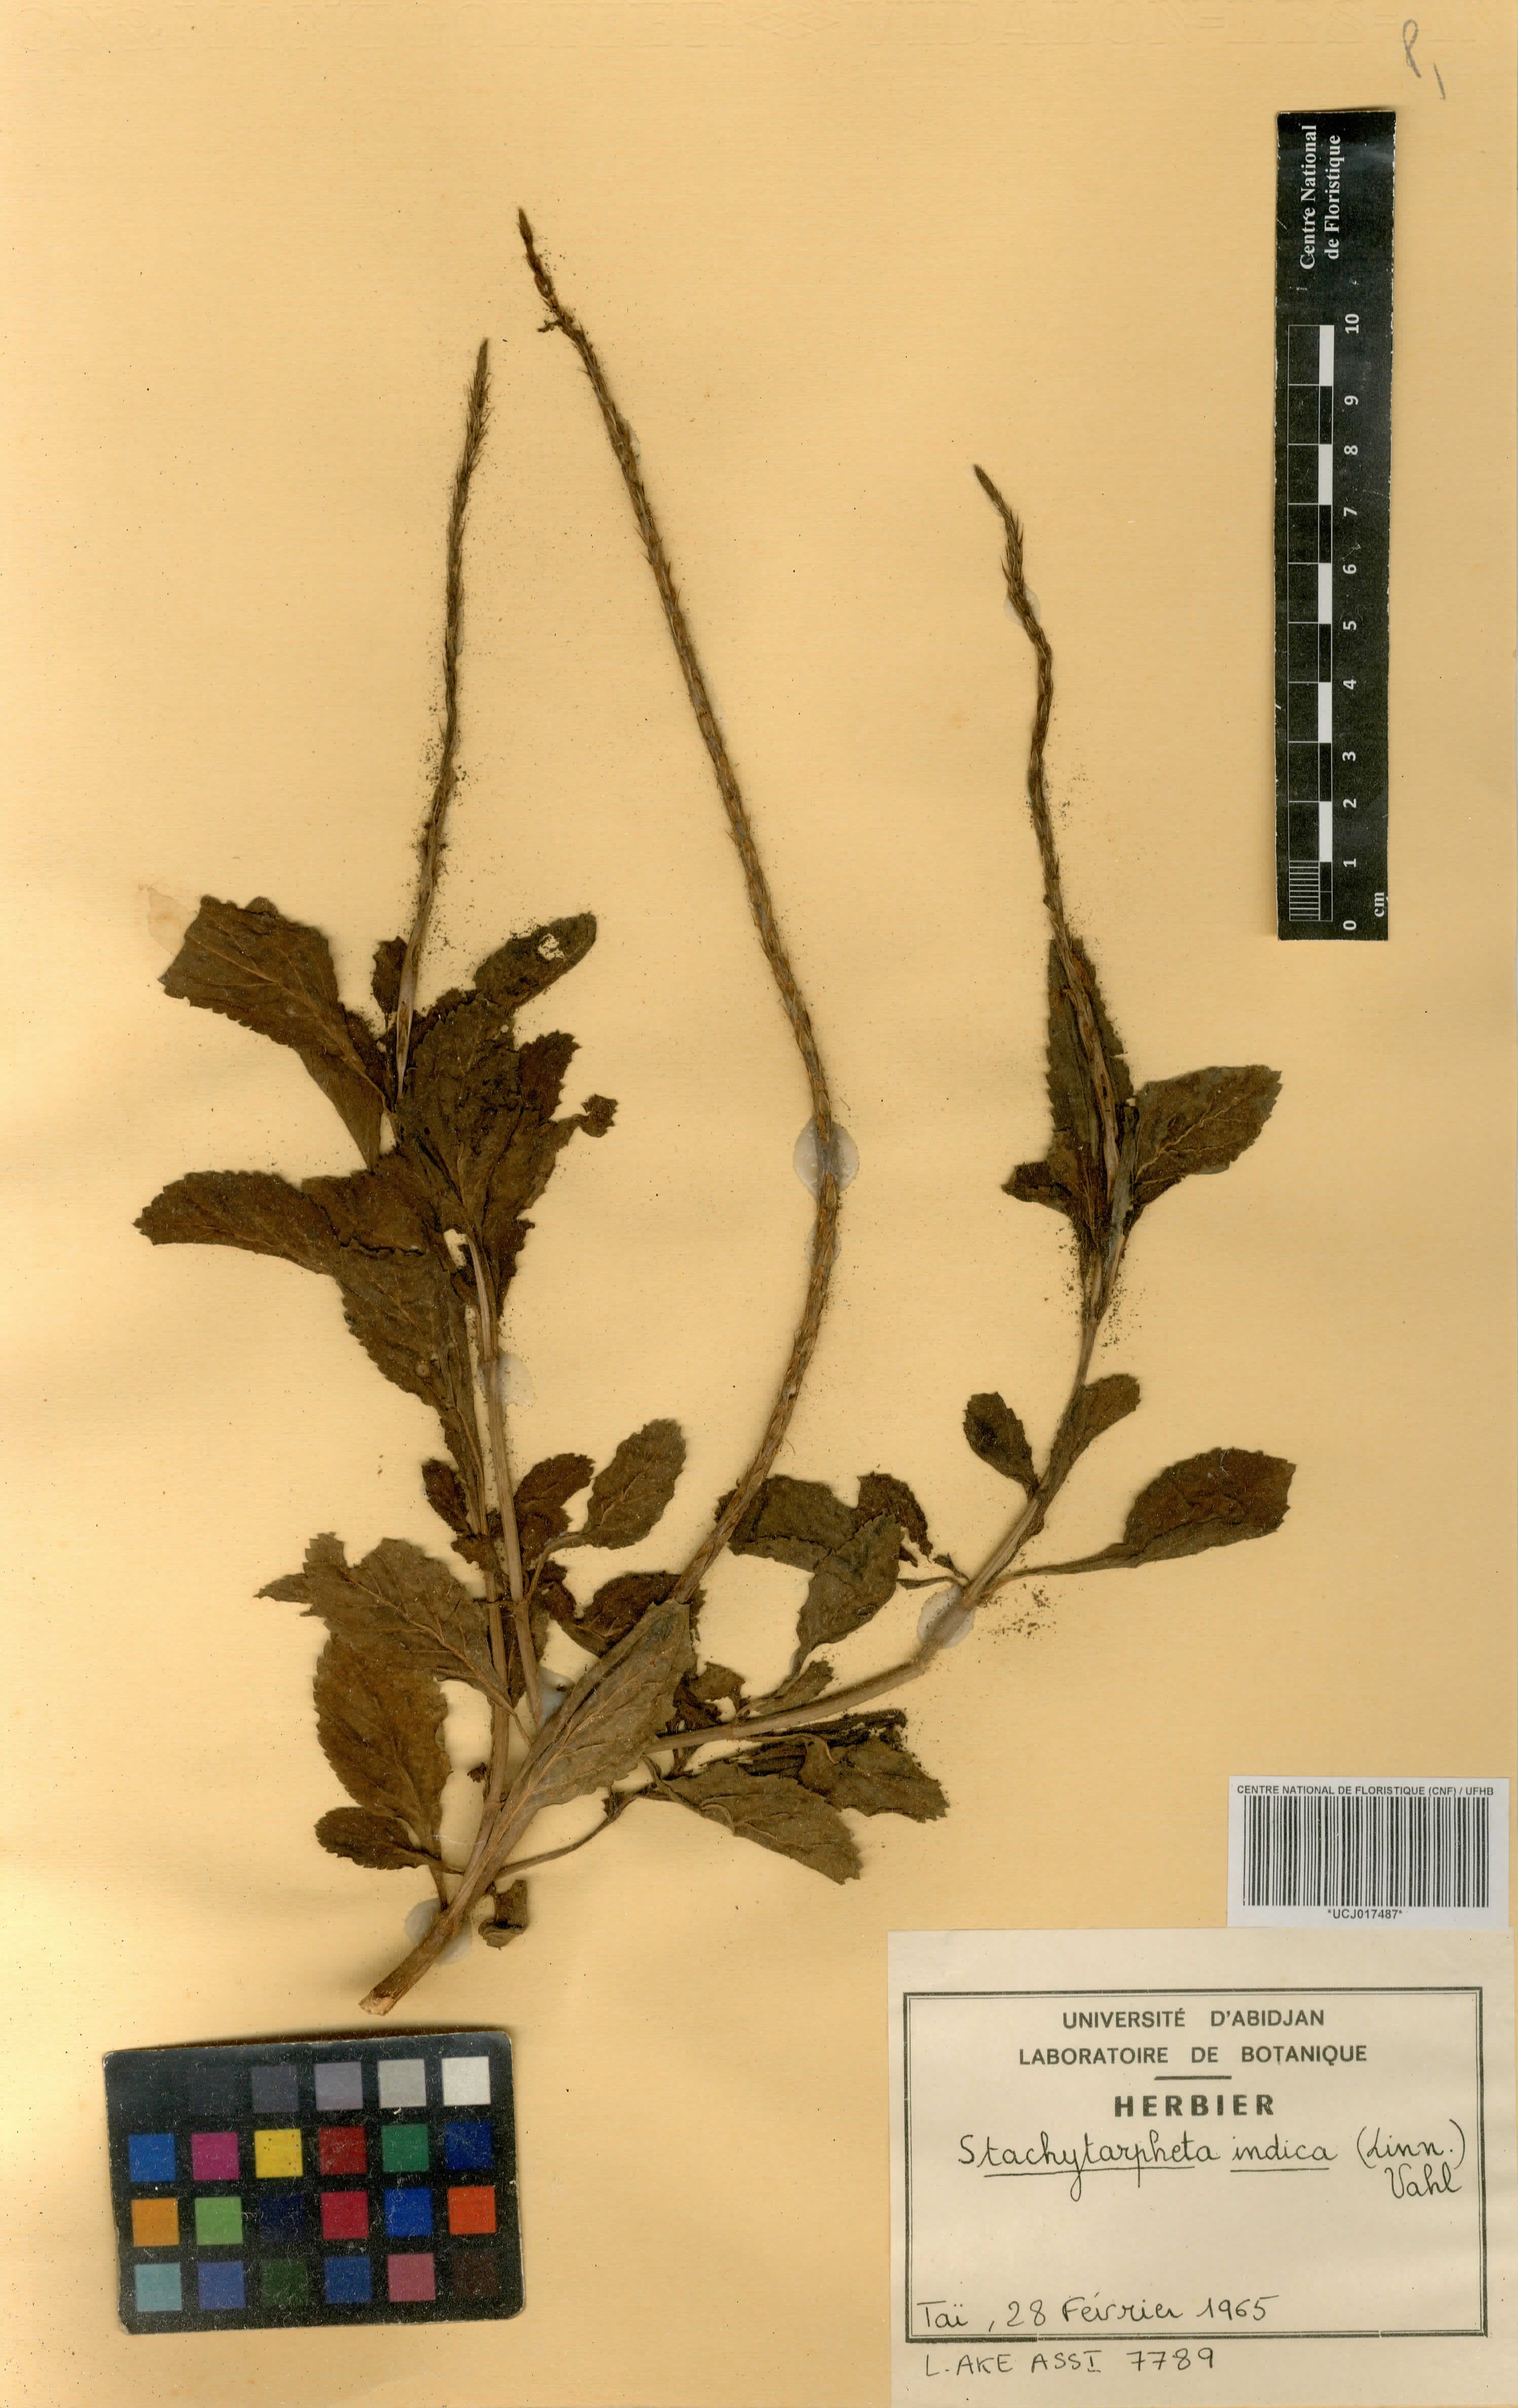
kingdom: Plantae
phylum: Tracheophyta
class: Magnoliopsida
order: Lamiales
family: Verbenaceae
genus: Stachytarpheta
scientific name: Stachytarpheta indica
